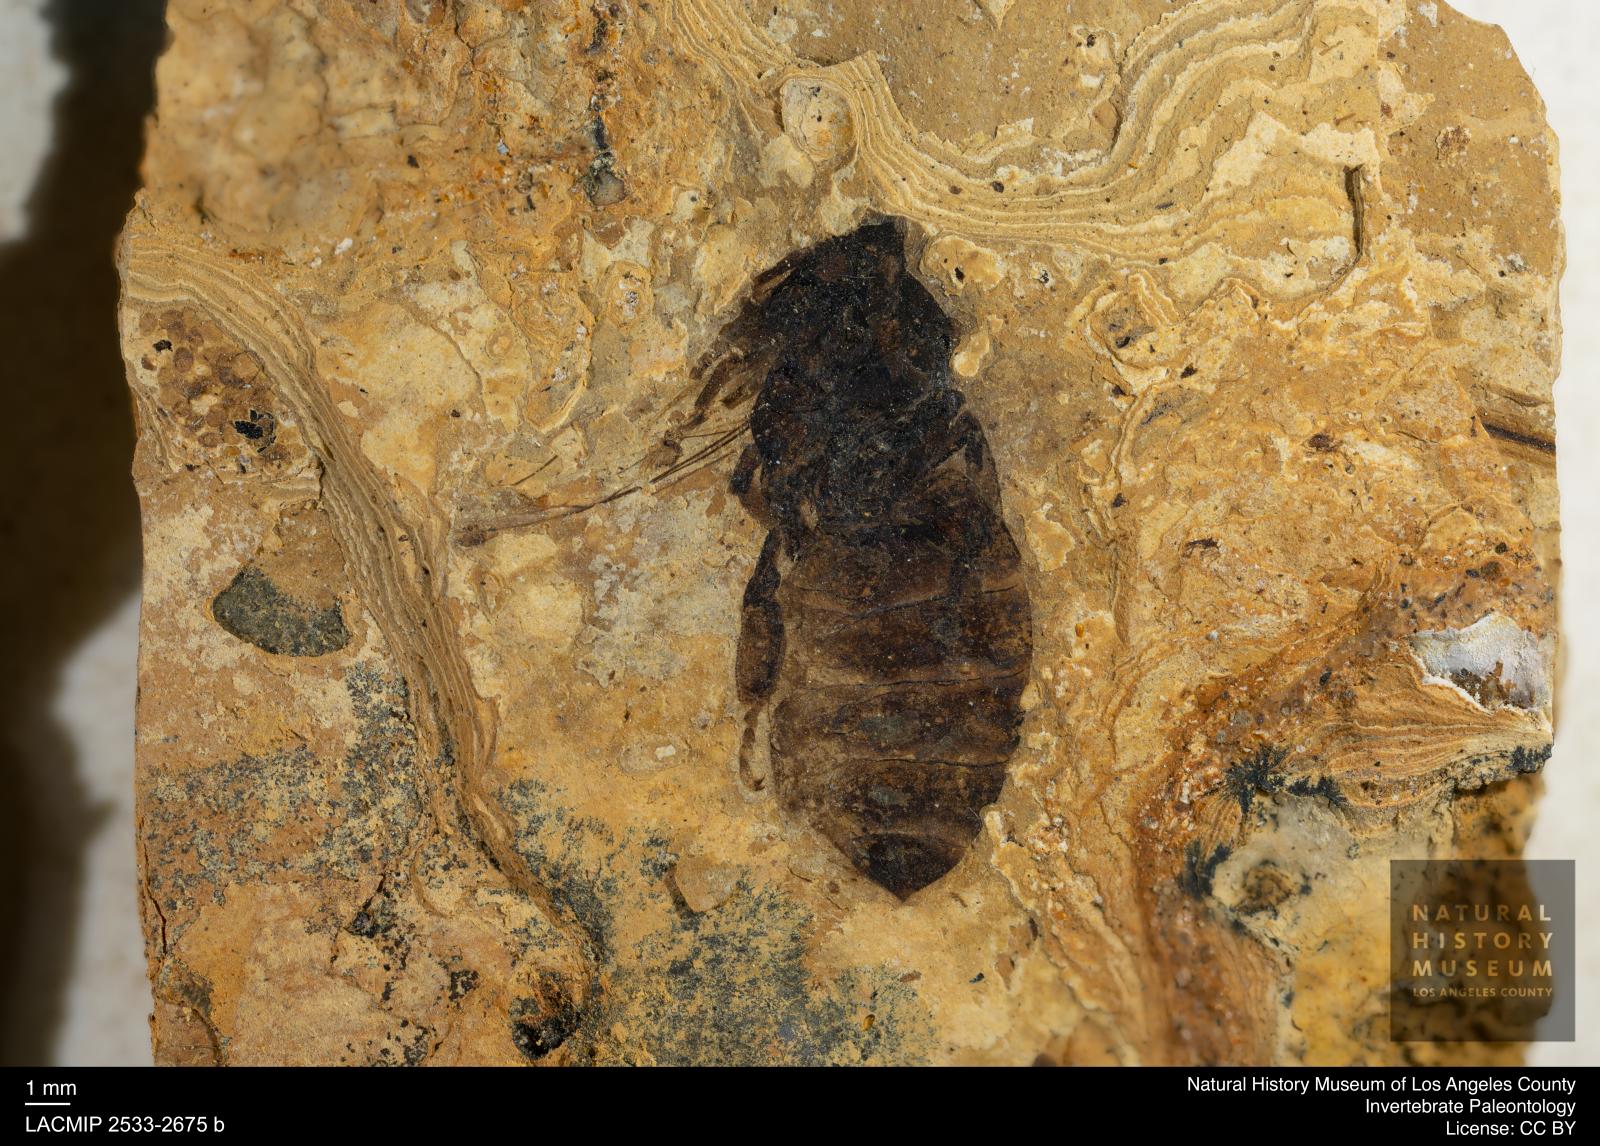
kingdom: Animalia
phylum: Arthropoda
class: Insecta
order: Hymenoptera
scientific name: Hymenoptera
